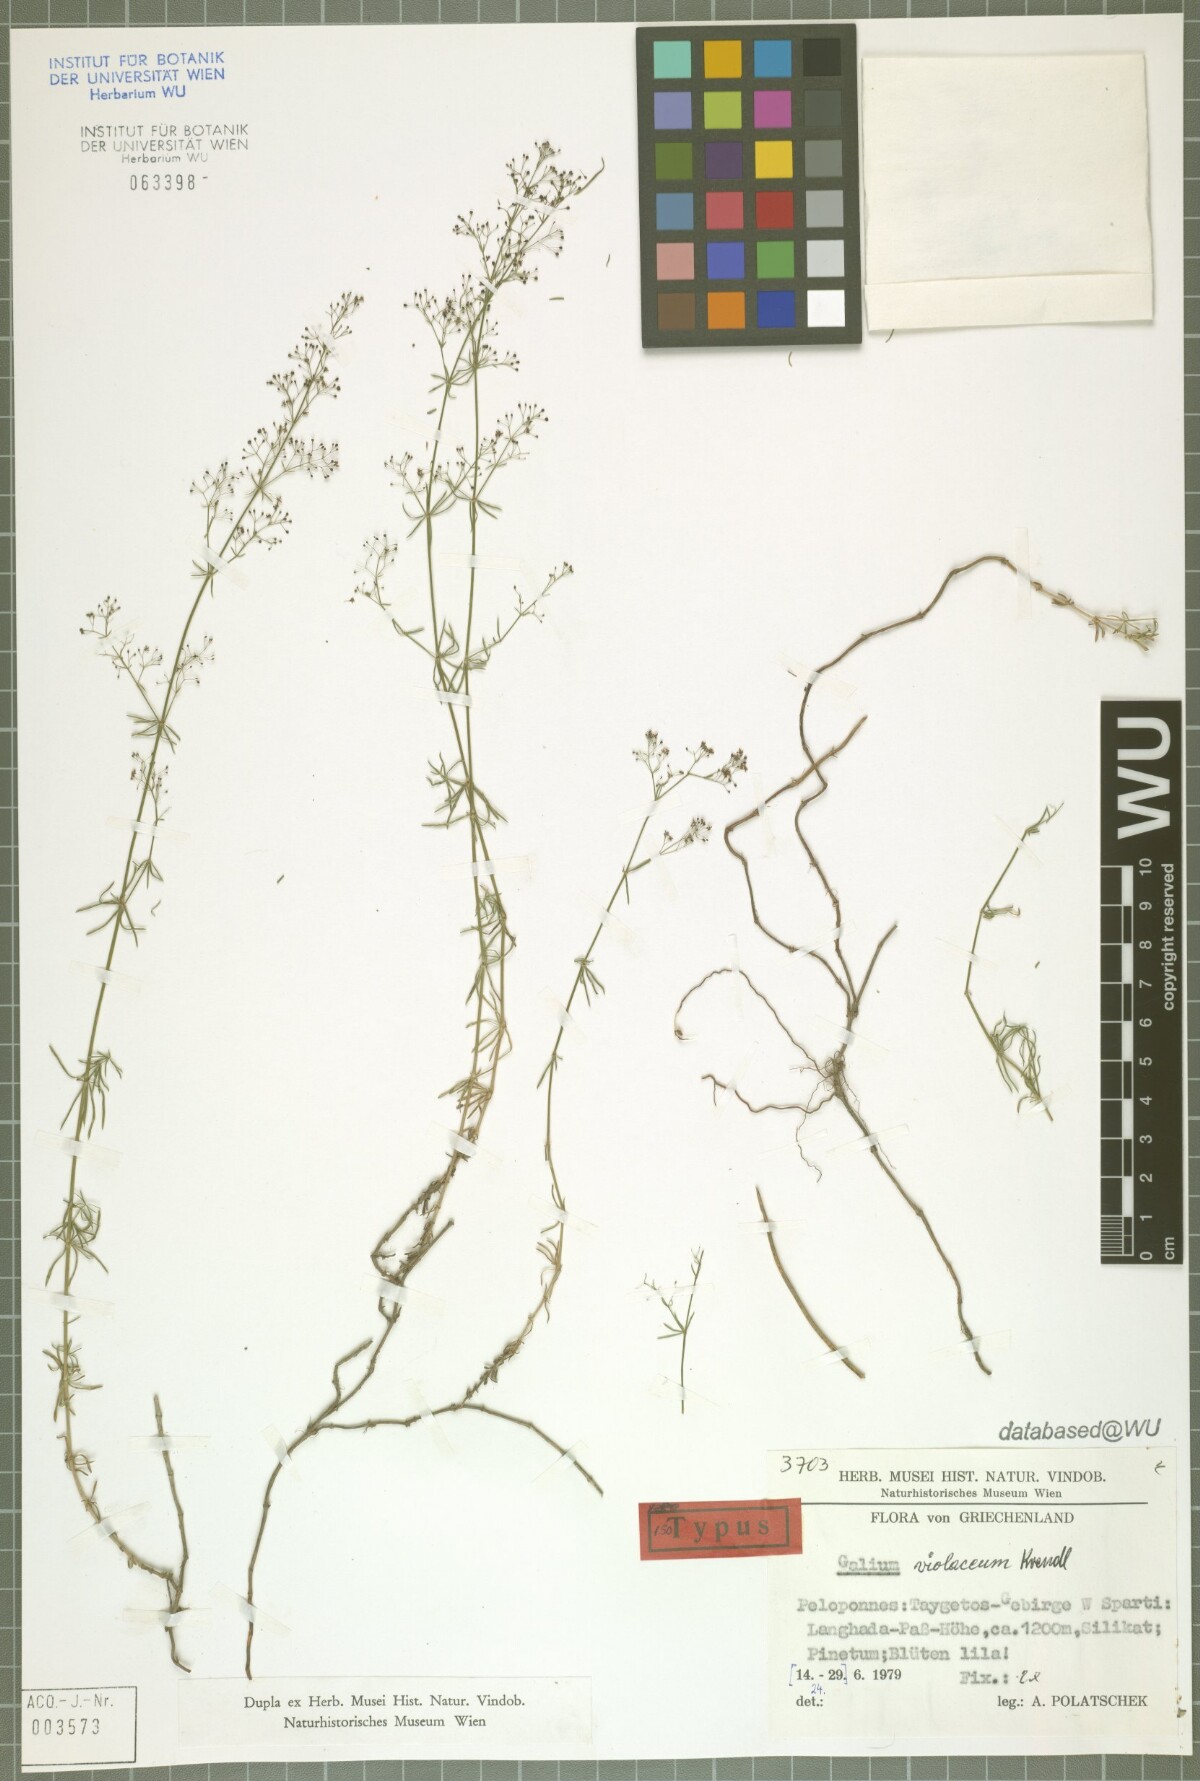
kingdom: Plantae
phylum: Tracheophyta
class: Magnoliopsida
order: Gentianales
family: Rubiaceae
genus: Galium
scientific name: Galium taygeteum
